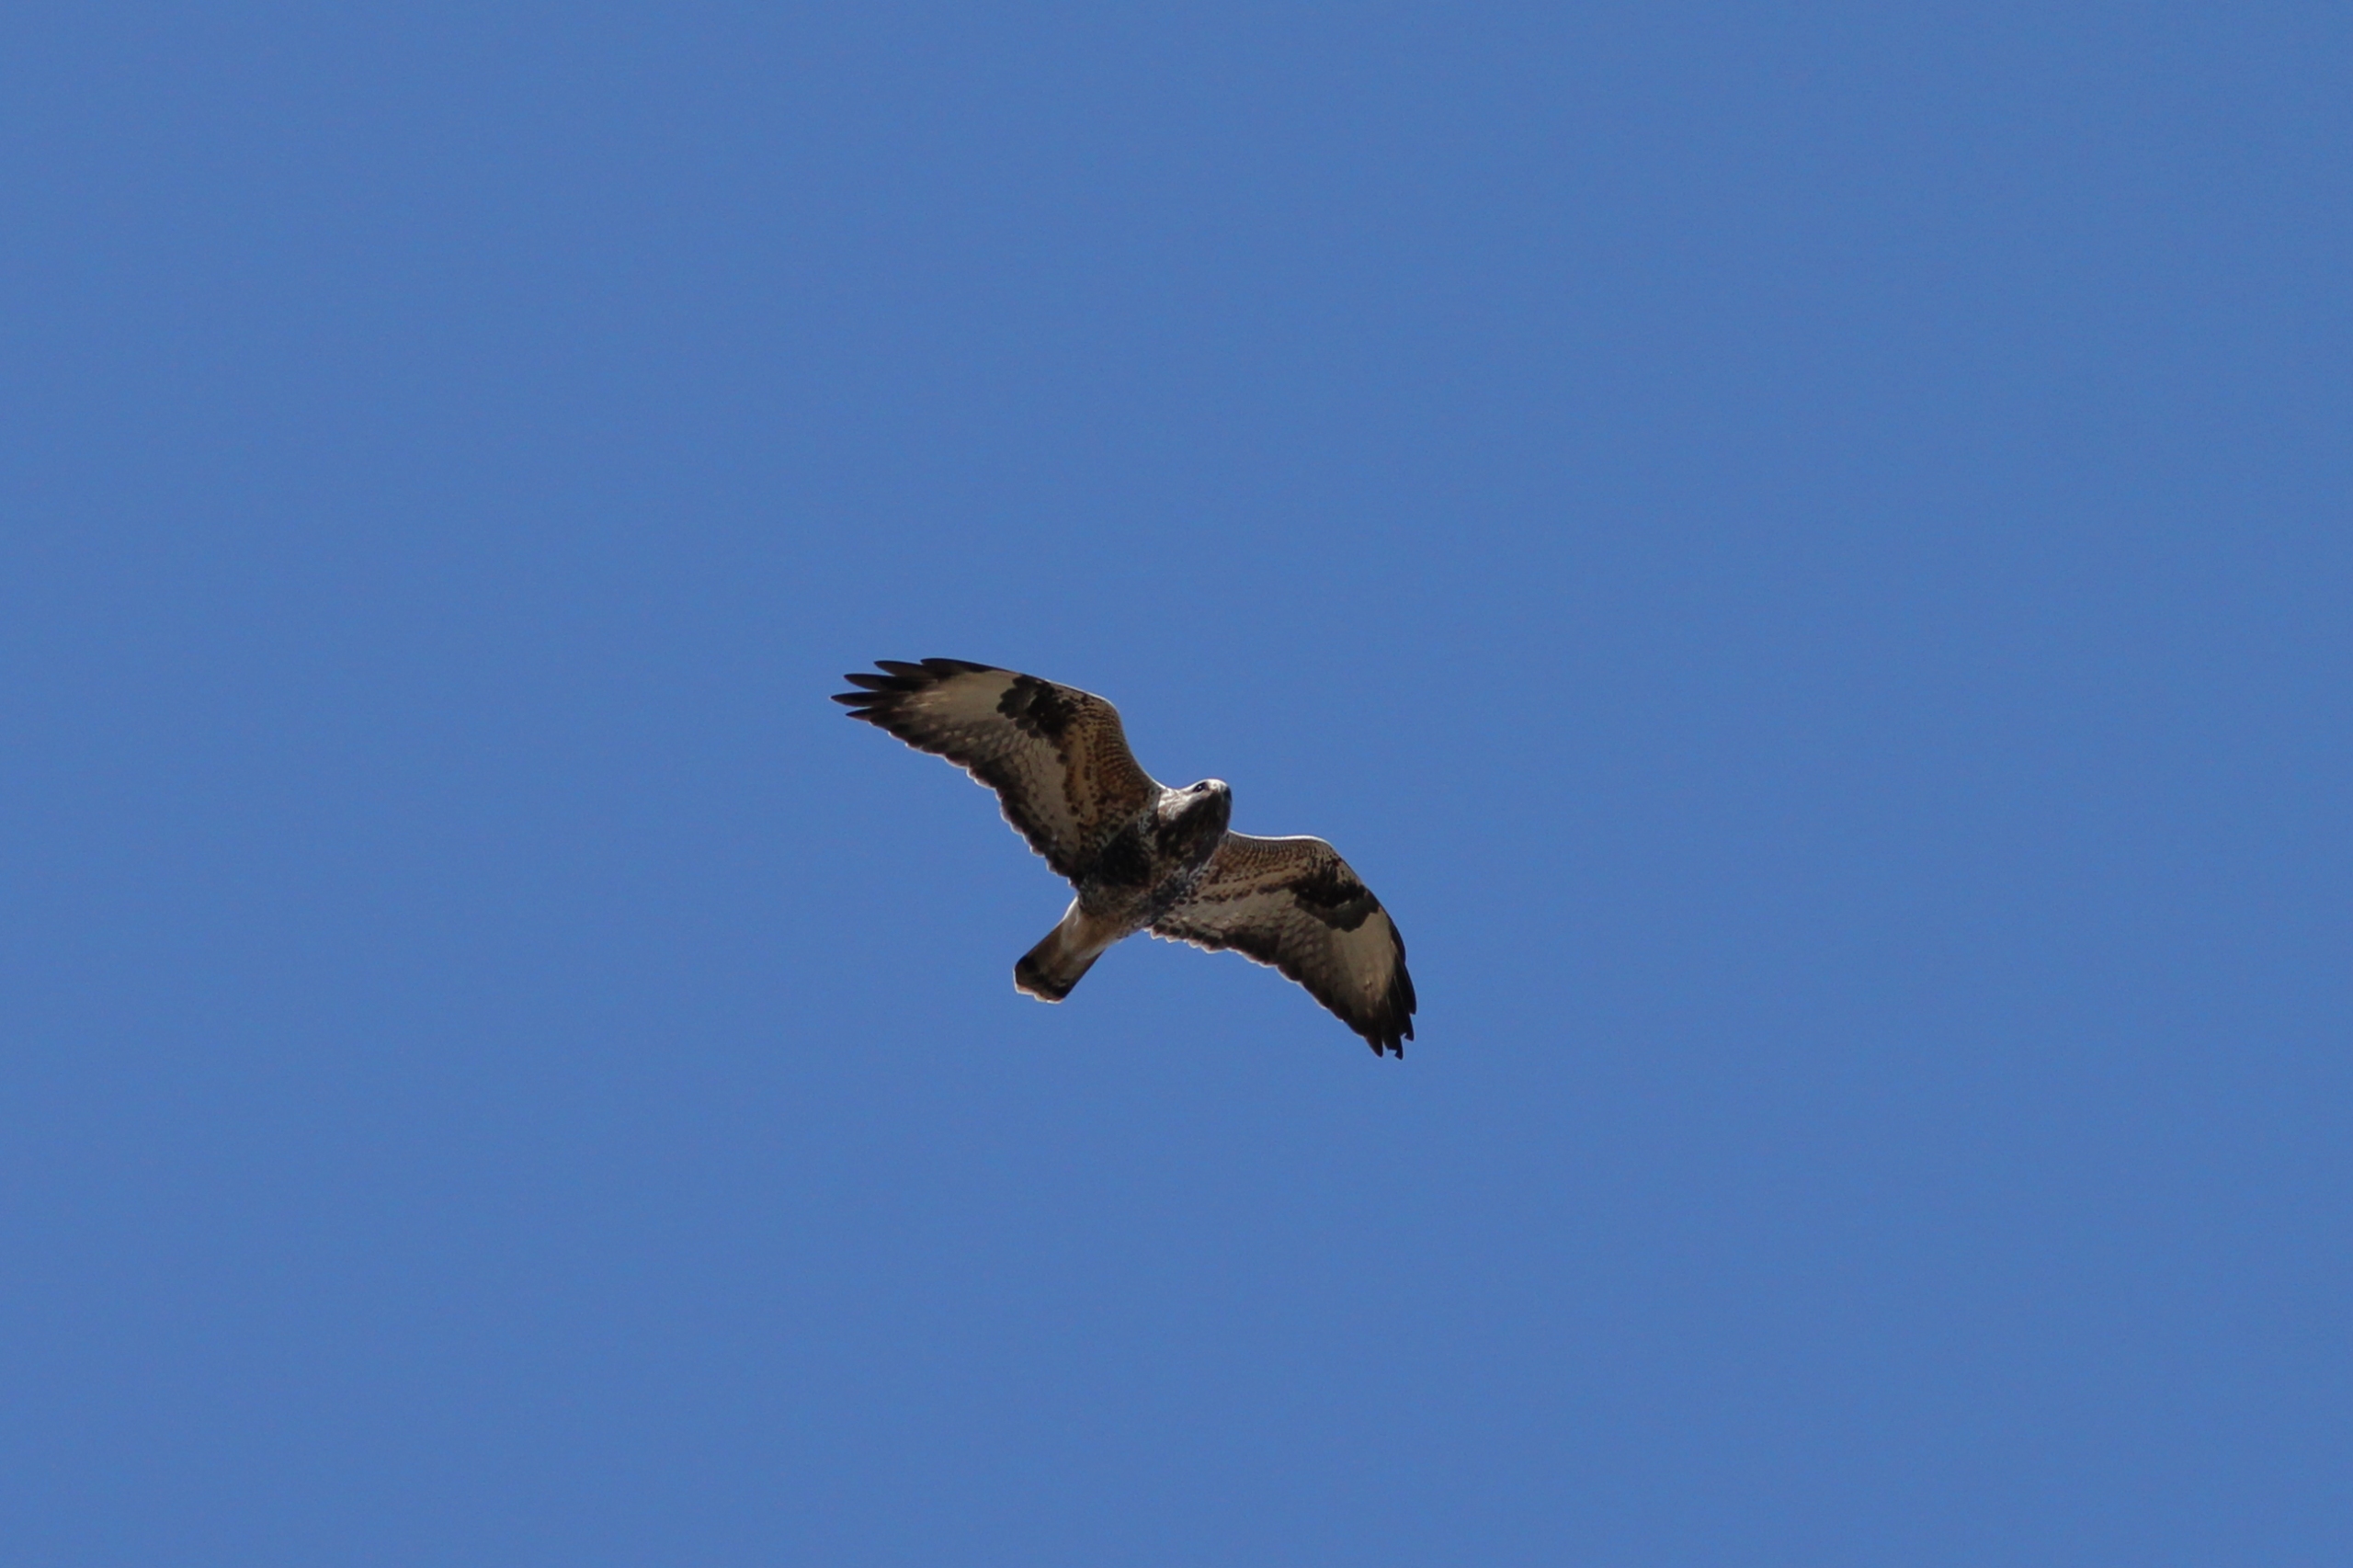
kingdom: Animalia
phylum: Chordata
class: Aves
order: Accipitriformes
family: Accipitridae
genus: Buteo
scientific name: Buteo lagopus
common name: Fjeldvåge
